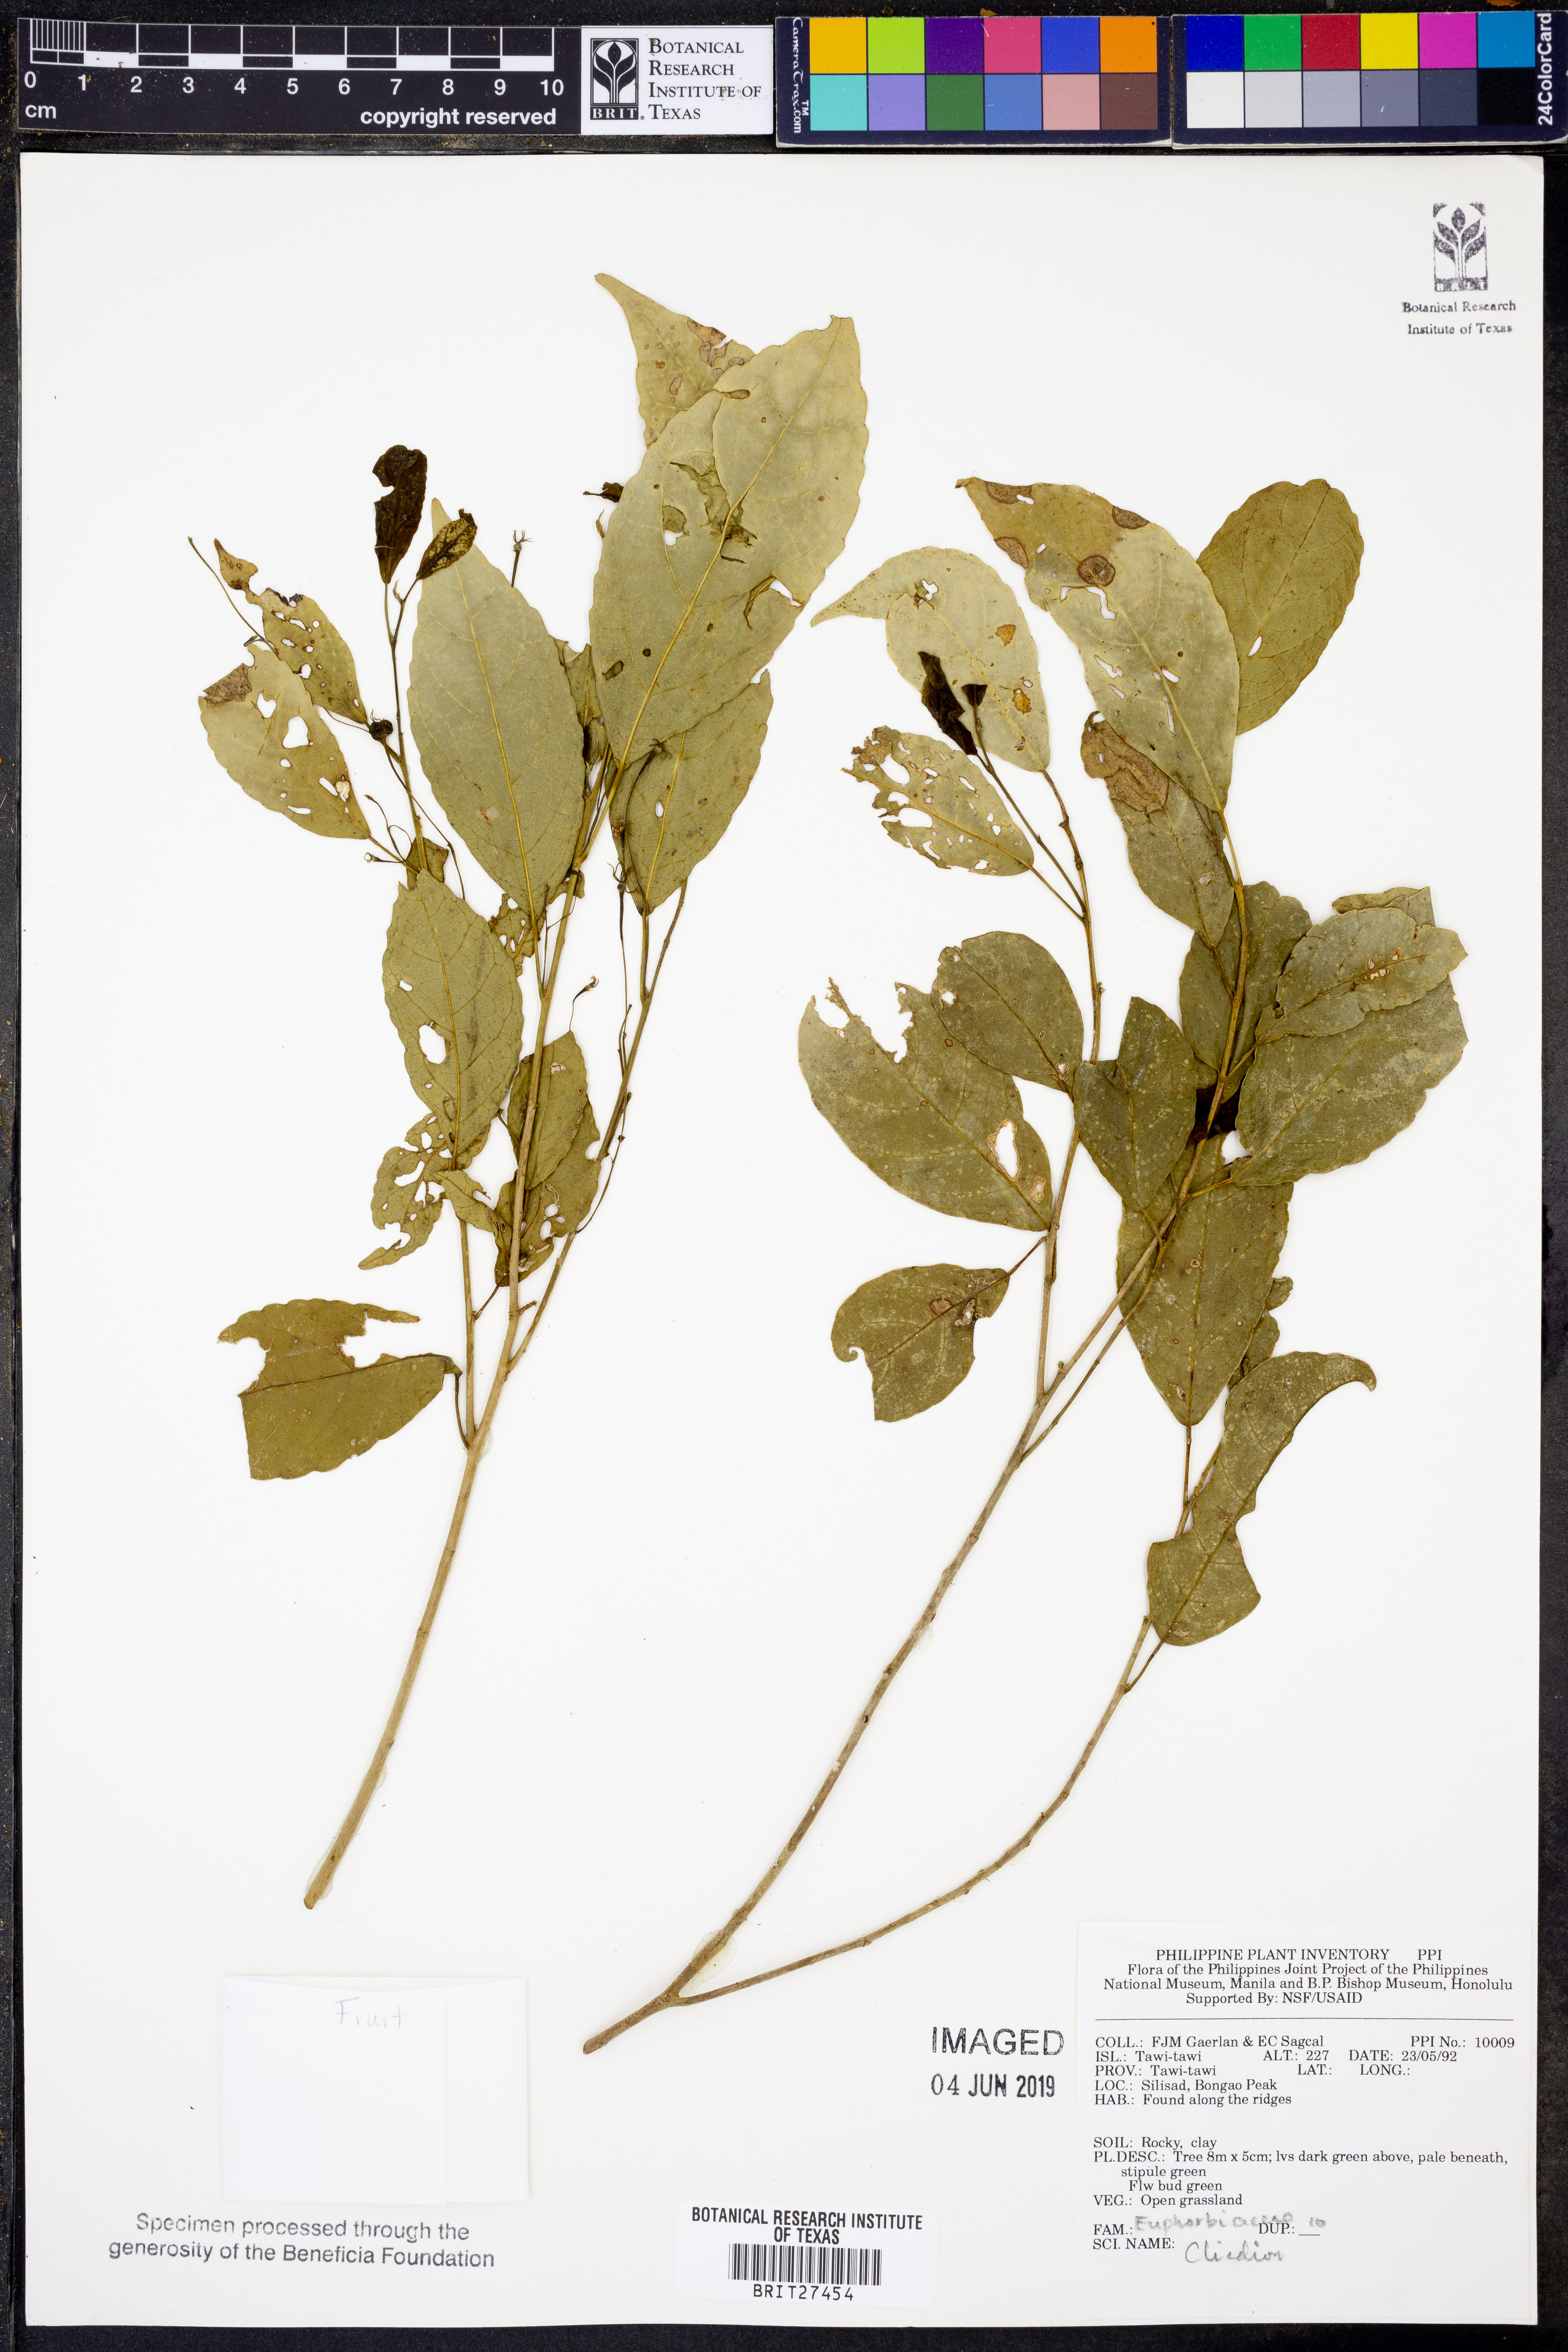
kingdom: Plantae
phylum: Tracheophyta
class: Magnoliopsida
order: Malpighiales
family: Euphorbiaceae
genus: Cleidion
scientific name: Cleidion
